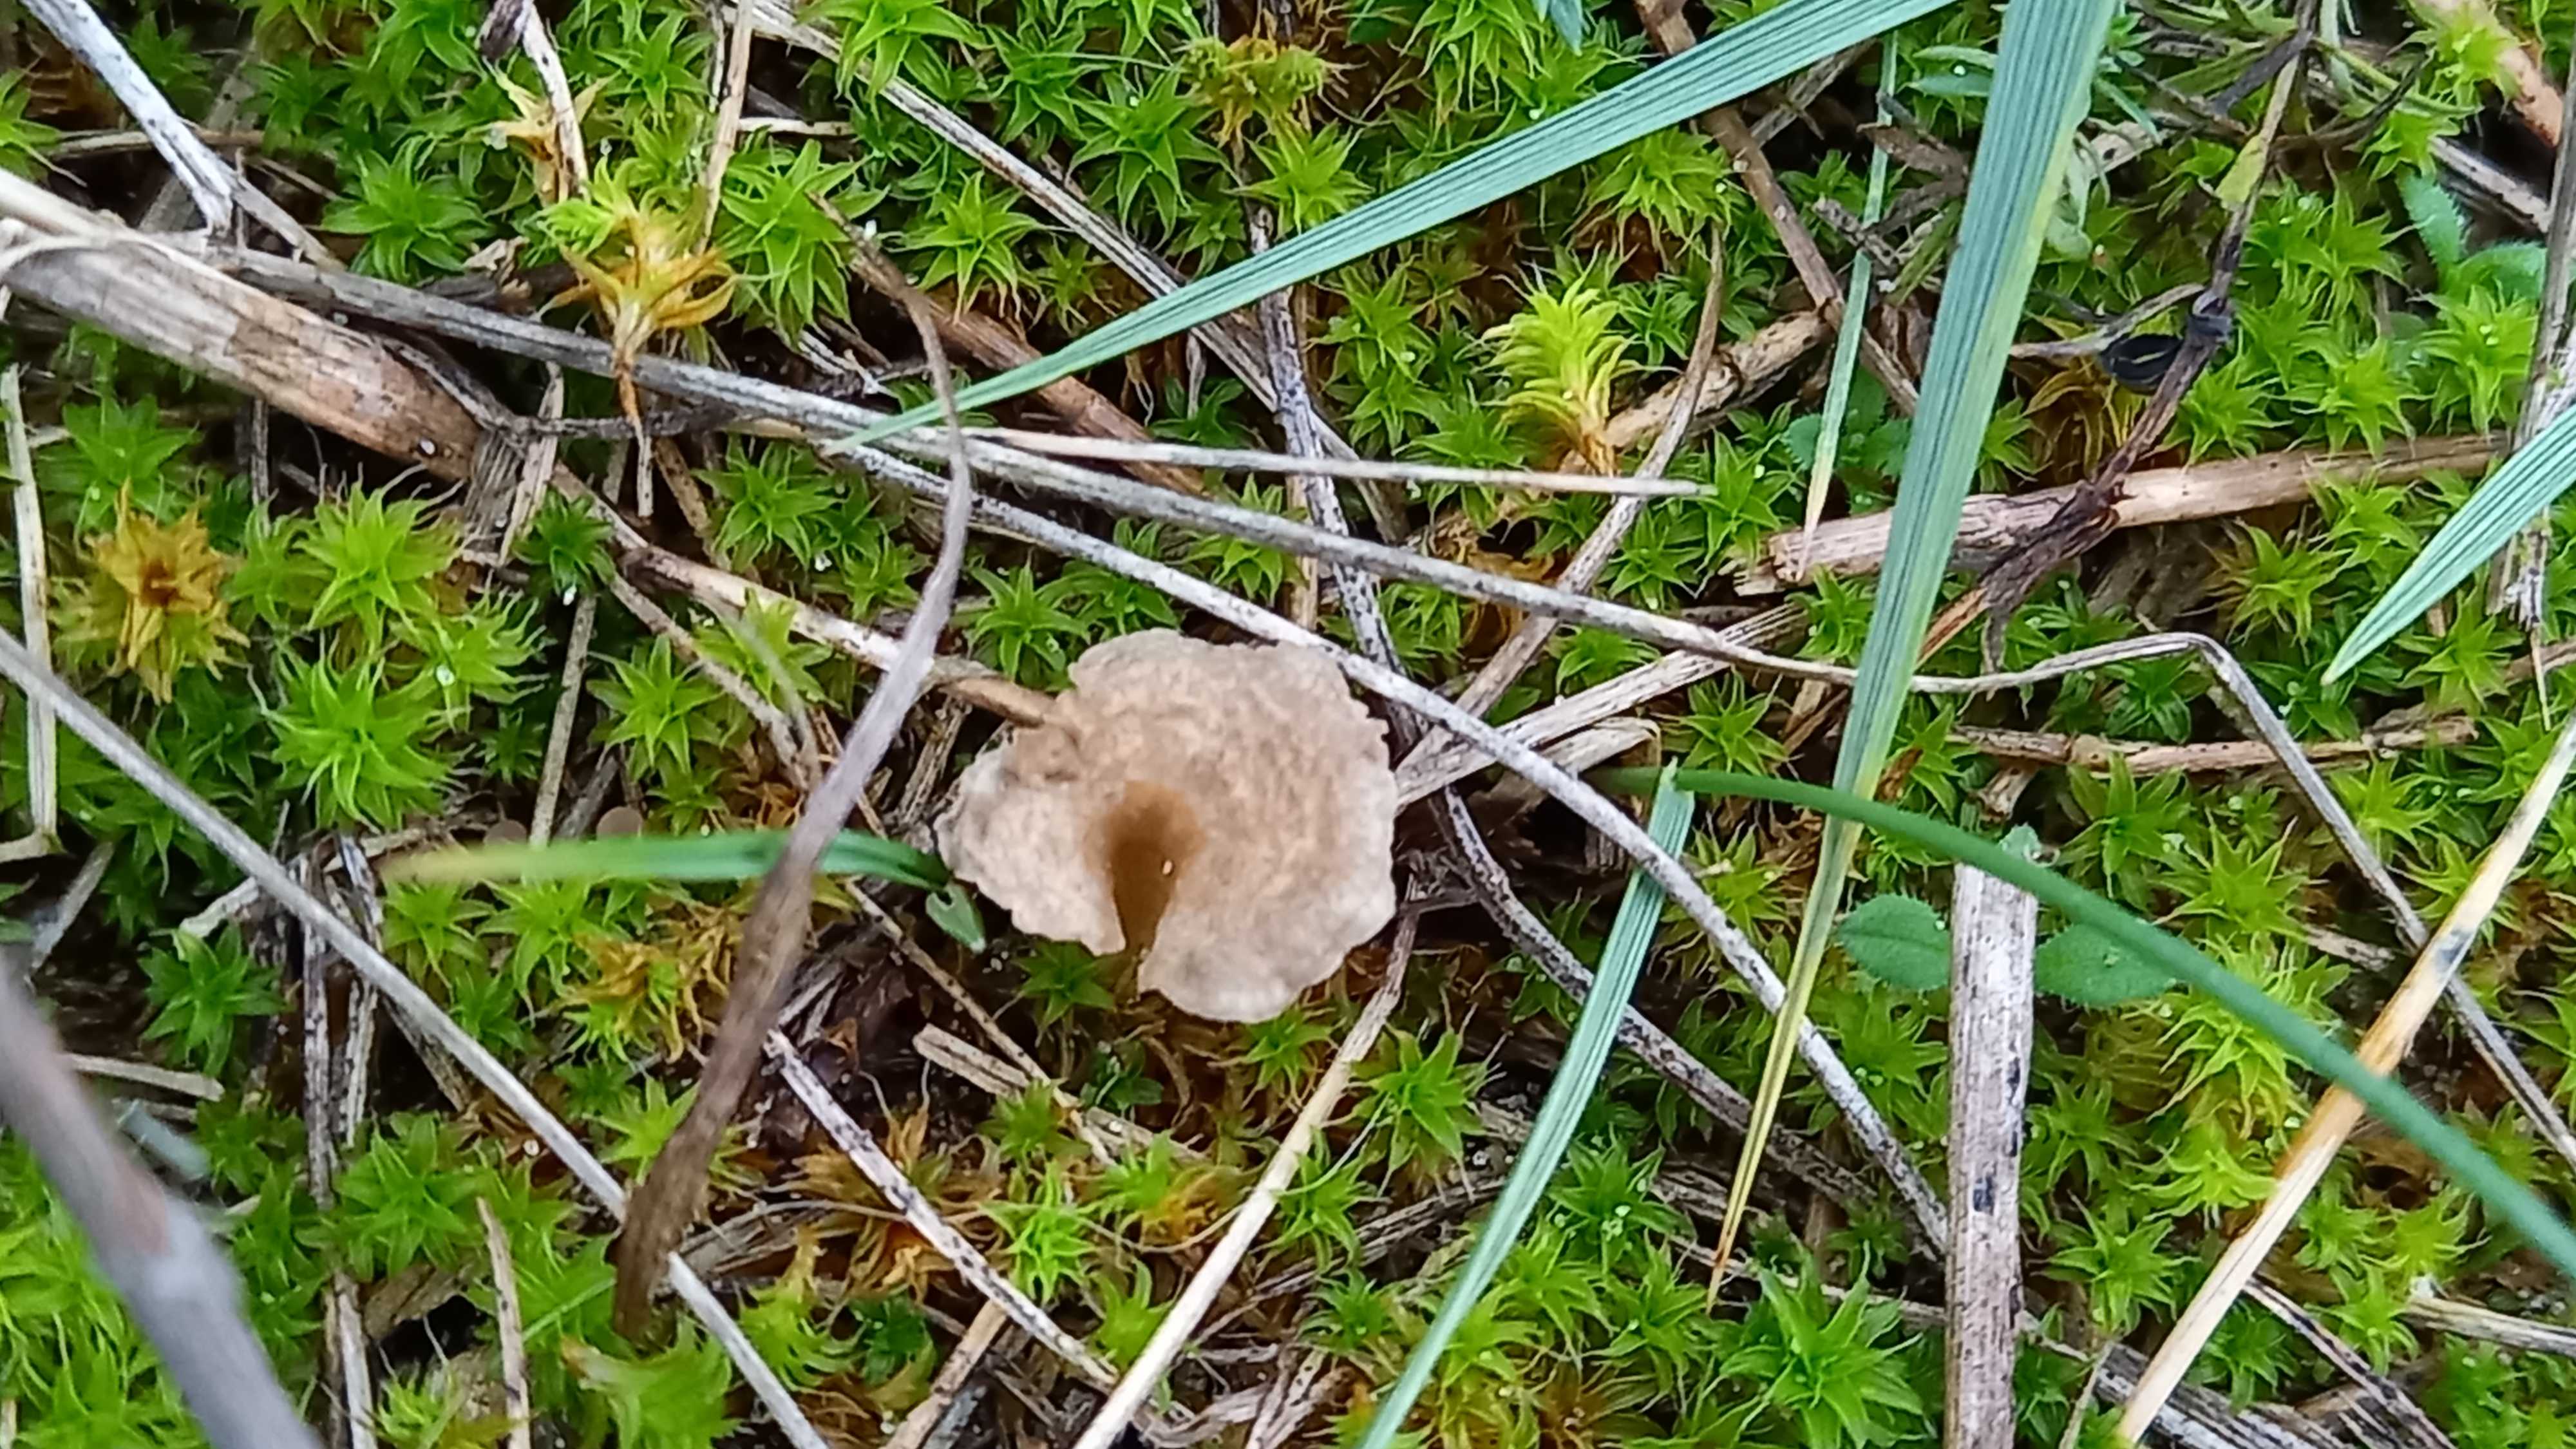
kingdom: Fungi
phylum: Basidiomycota
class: Agaricomycetes
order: Agaricales
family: Hygrophoraceae
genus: Arrhenia
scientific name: Arrhenia spathulata
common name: skæv fontænehat
